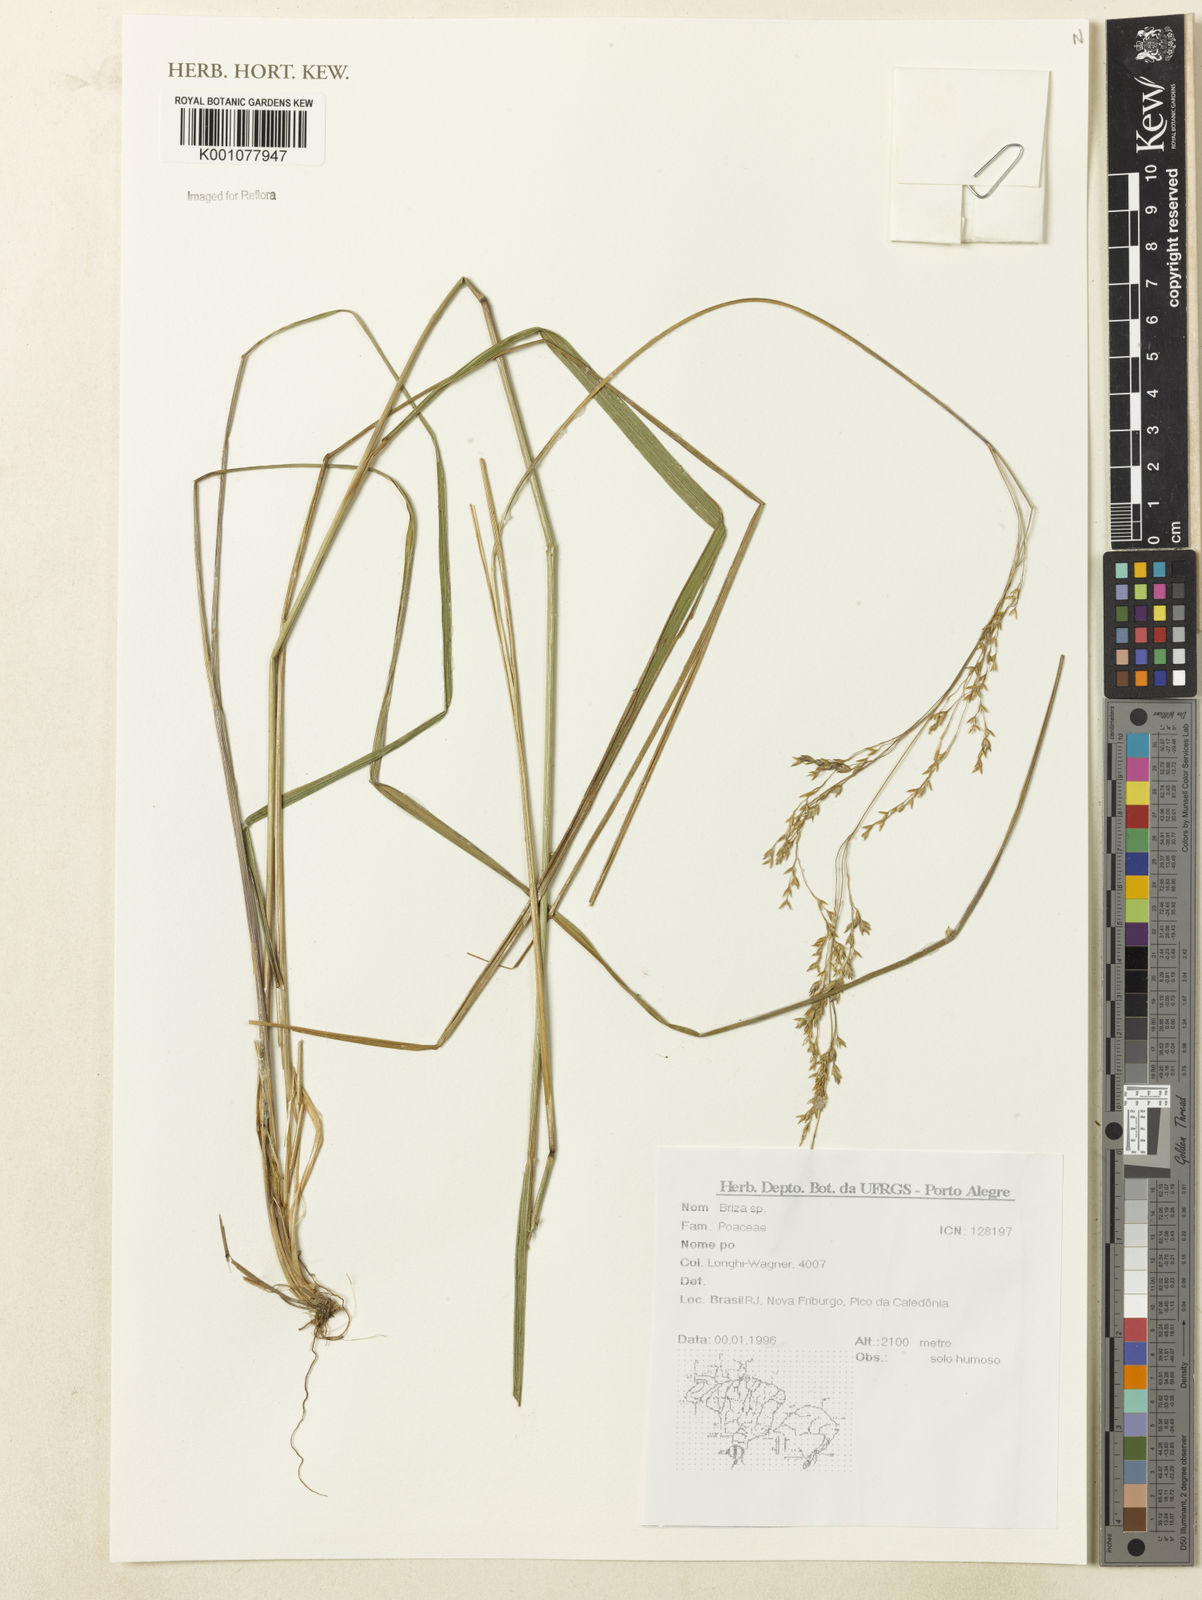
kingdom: Plantae
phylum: Tracheophyta
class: Liliopsida
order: Poales
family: Poaceae
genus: Briza
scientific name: Briza
